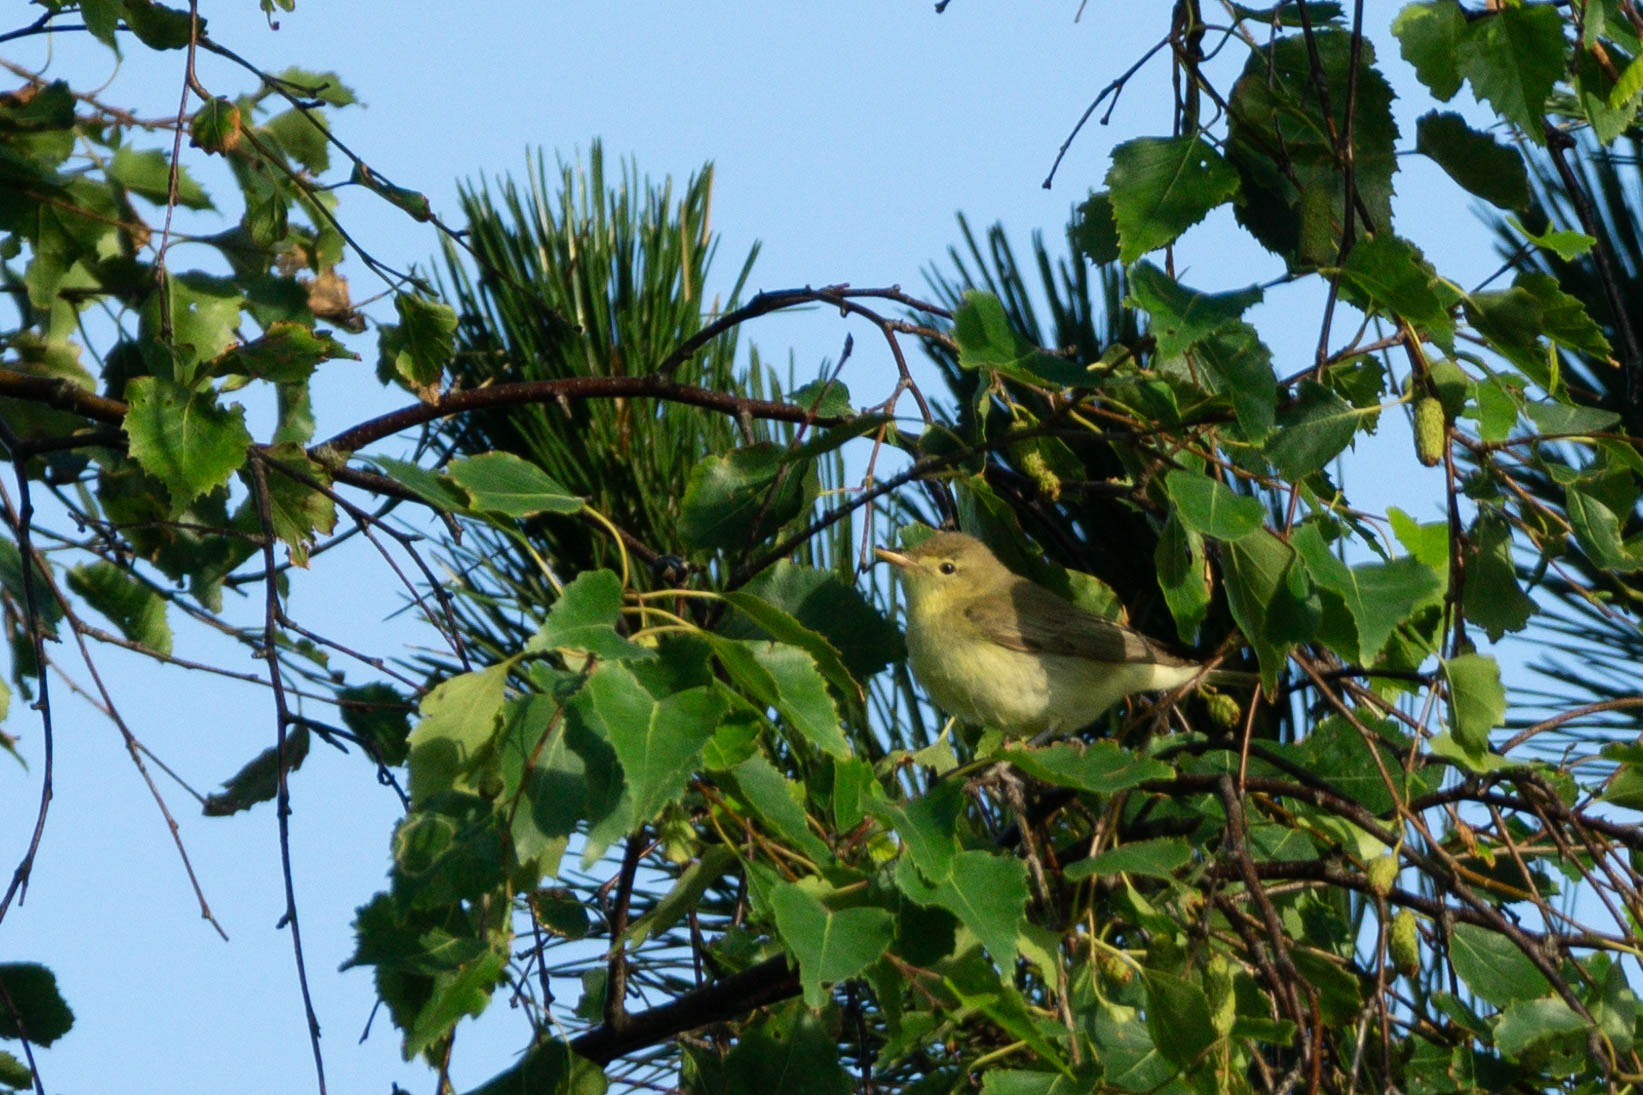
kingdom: Animalia
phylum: Chordata
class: Aves
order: Passeriformes
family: Acrocephalidae
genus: Hippolais
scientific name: Hippolais icterina
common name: Gulbug
